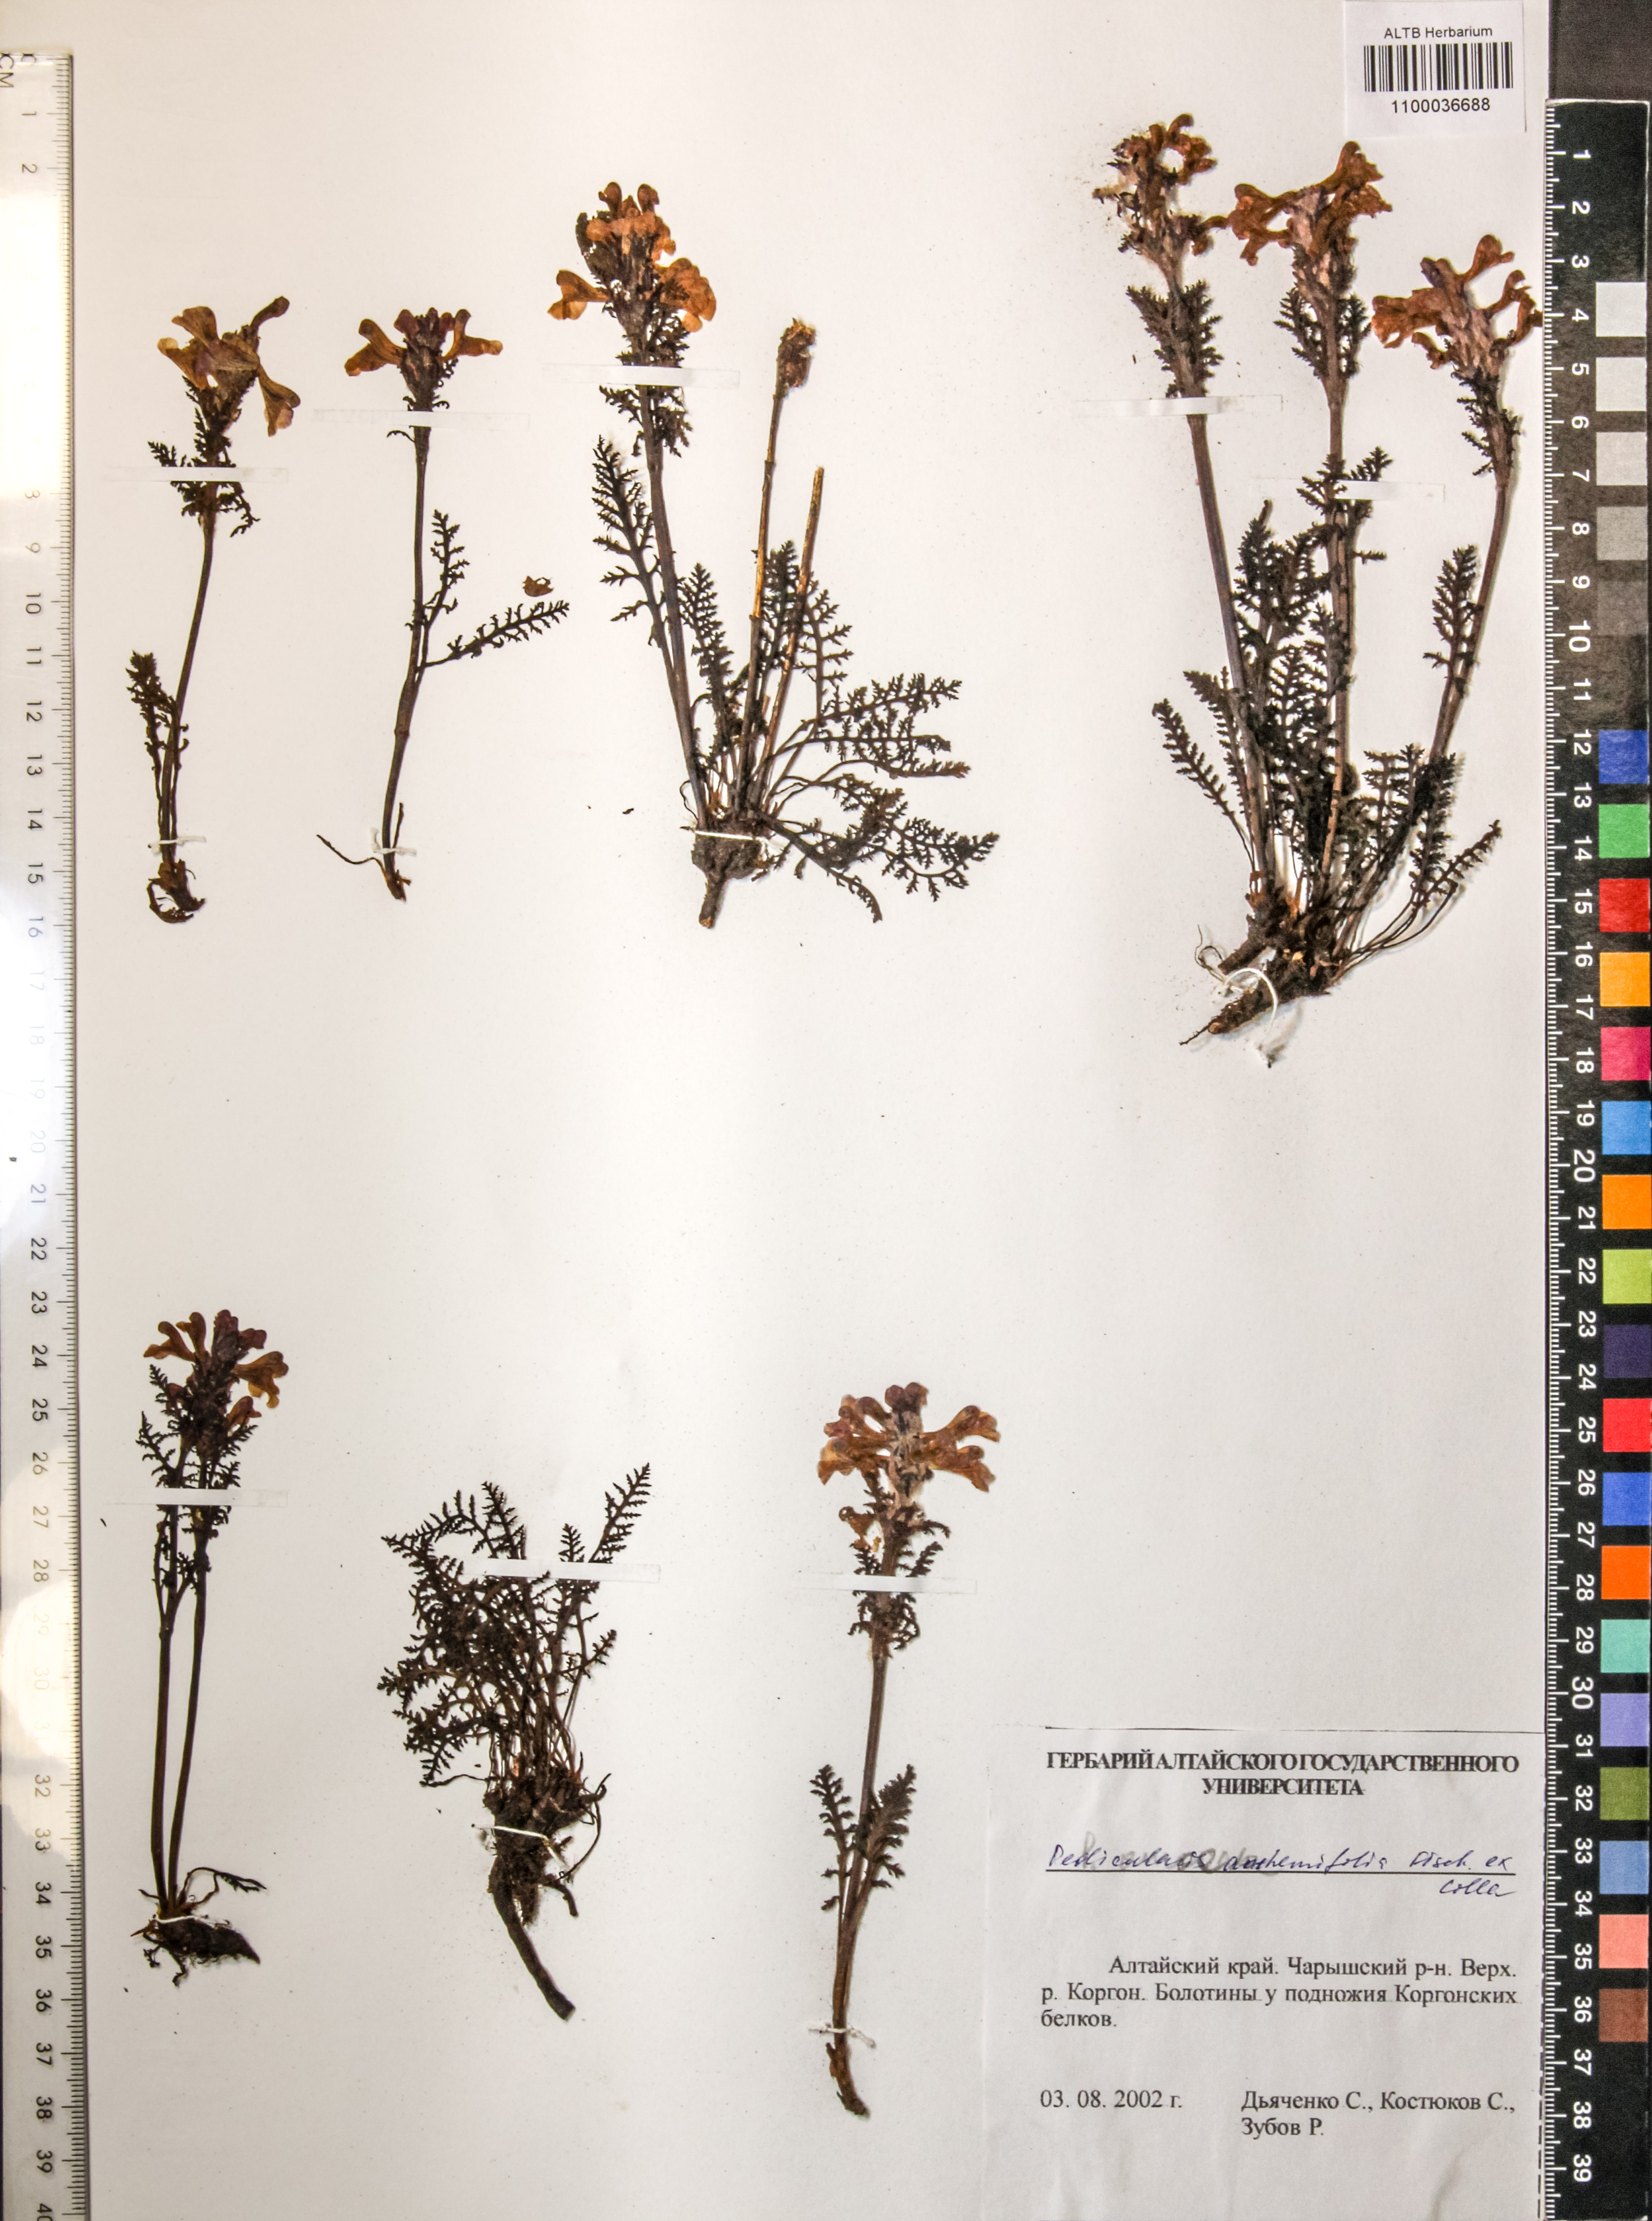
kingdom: Plantae
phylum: Tracheophyta
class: Magnoliopsida
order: Lamiales
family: Orobanchaceae
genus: Pedicularis
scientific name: Pedicularis anthemifolia
